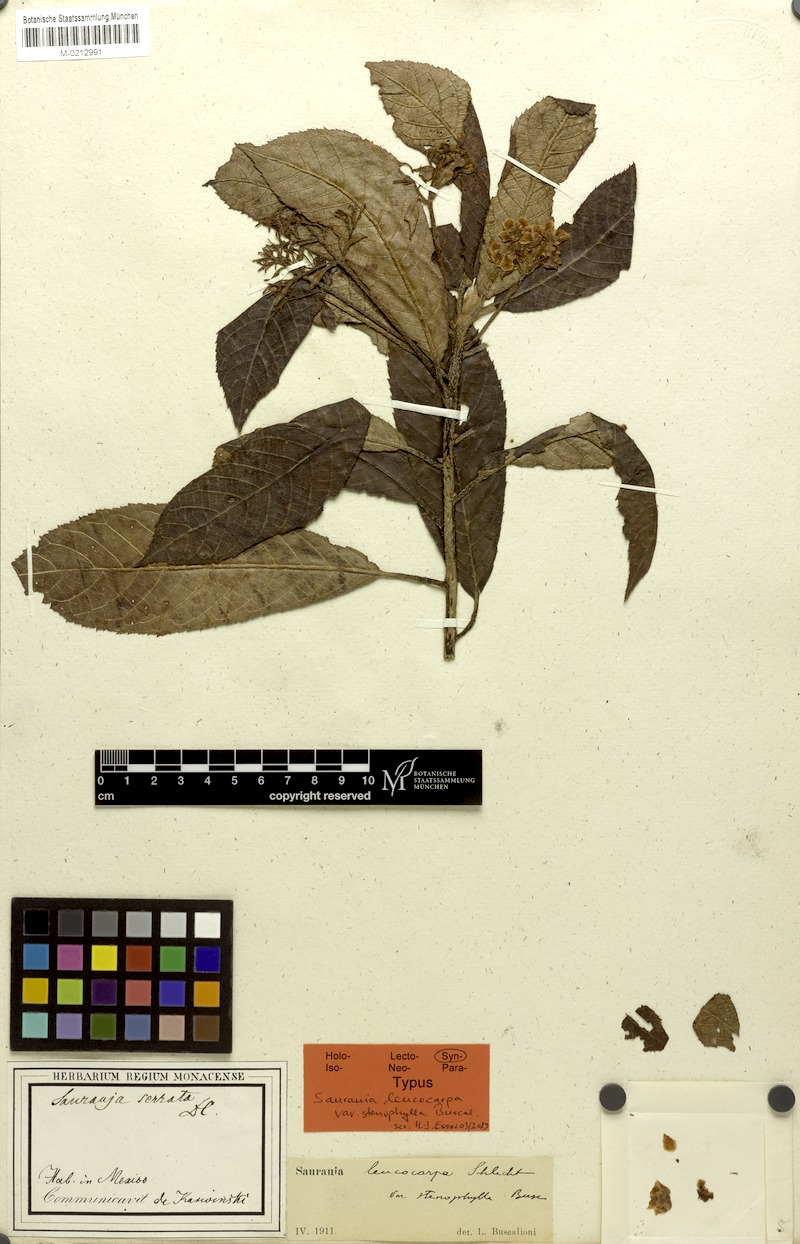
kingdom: Plantae
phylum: Tracheophyta
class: Magnoliopsida
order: Ericales
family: Actinidiaceae
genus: Saurauia
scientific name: Saurauia oreophila
